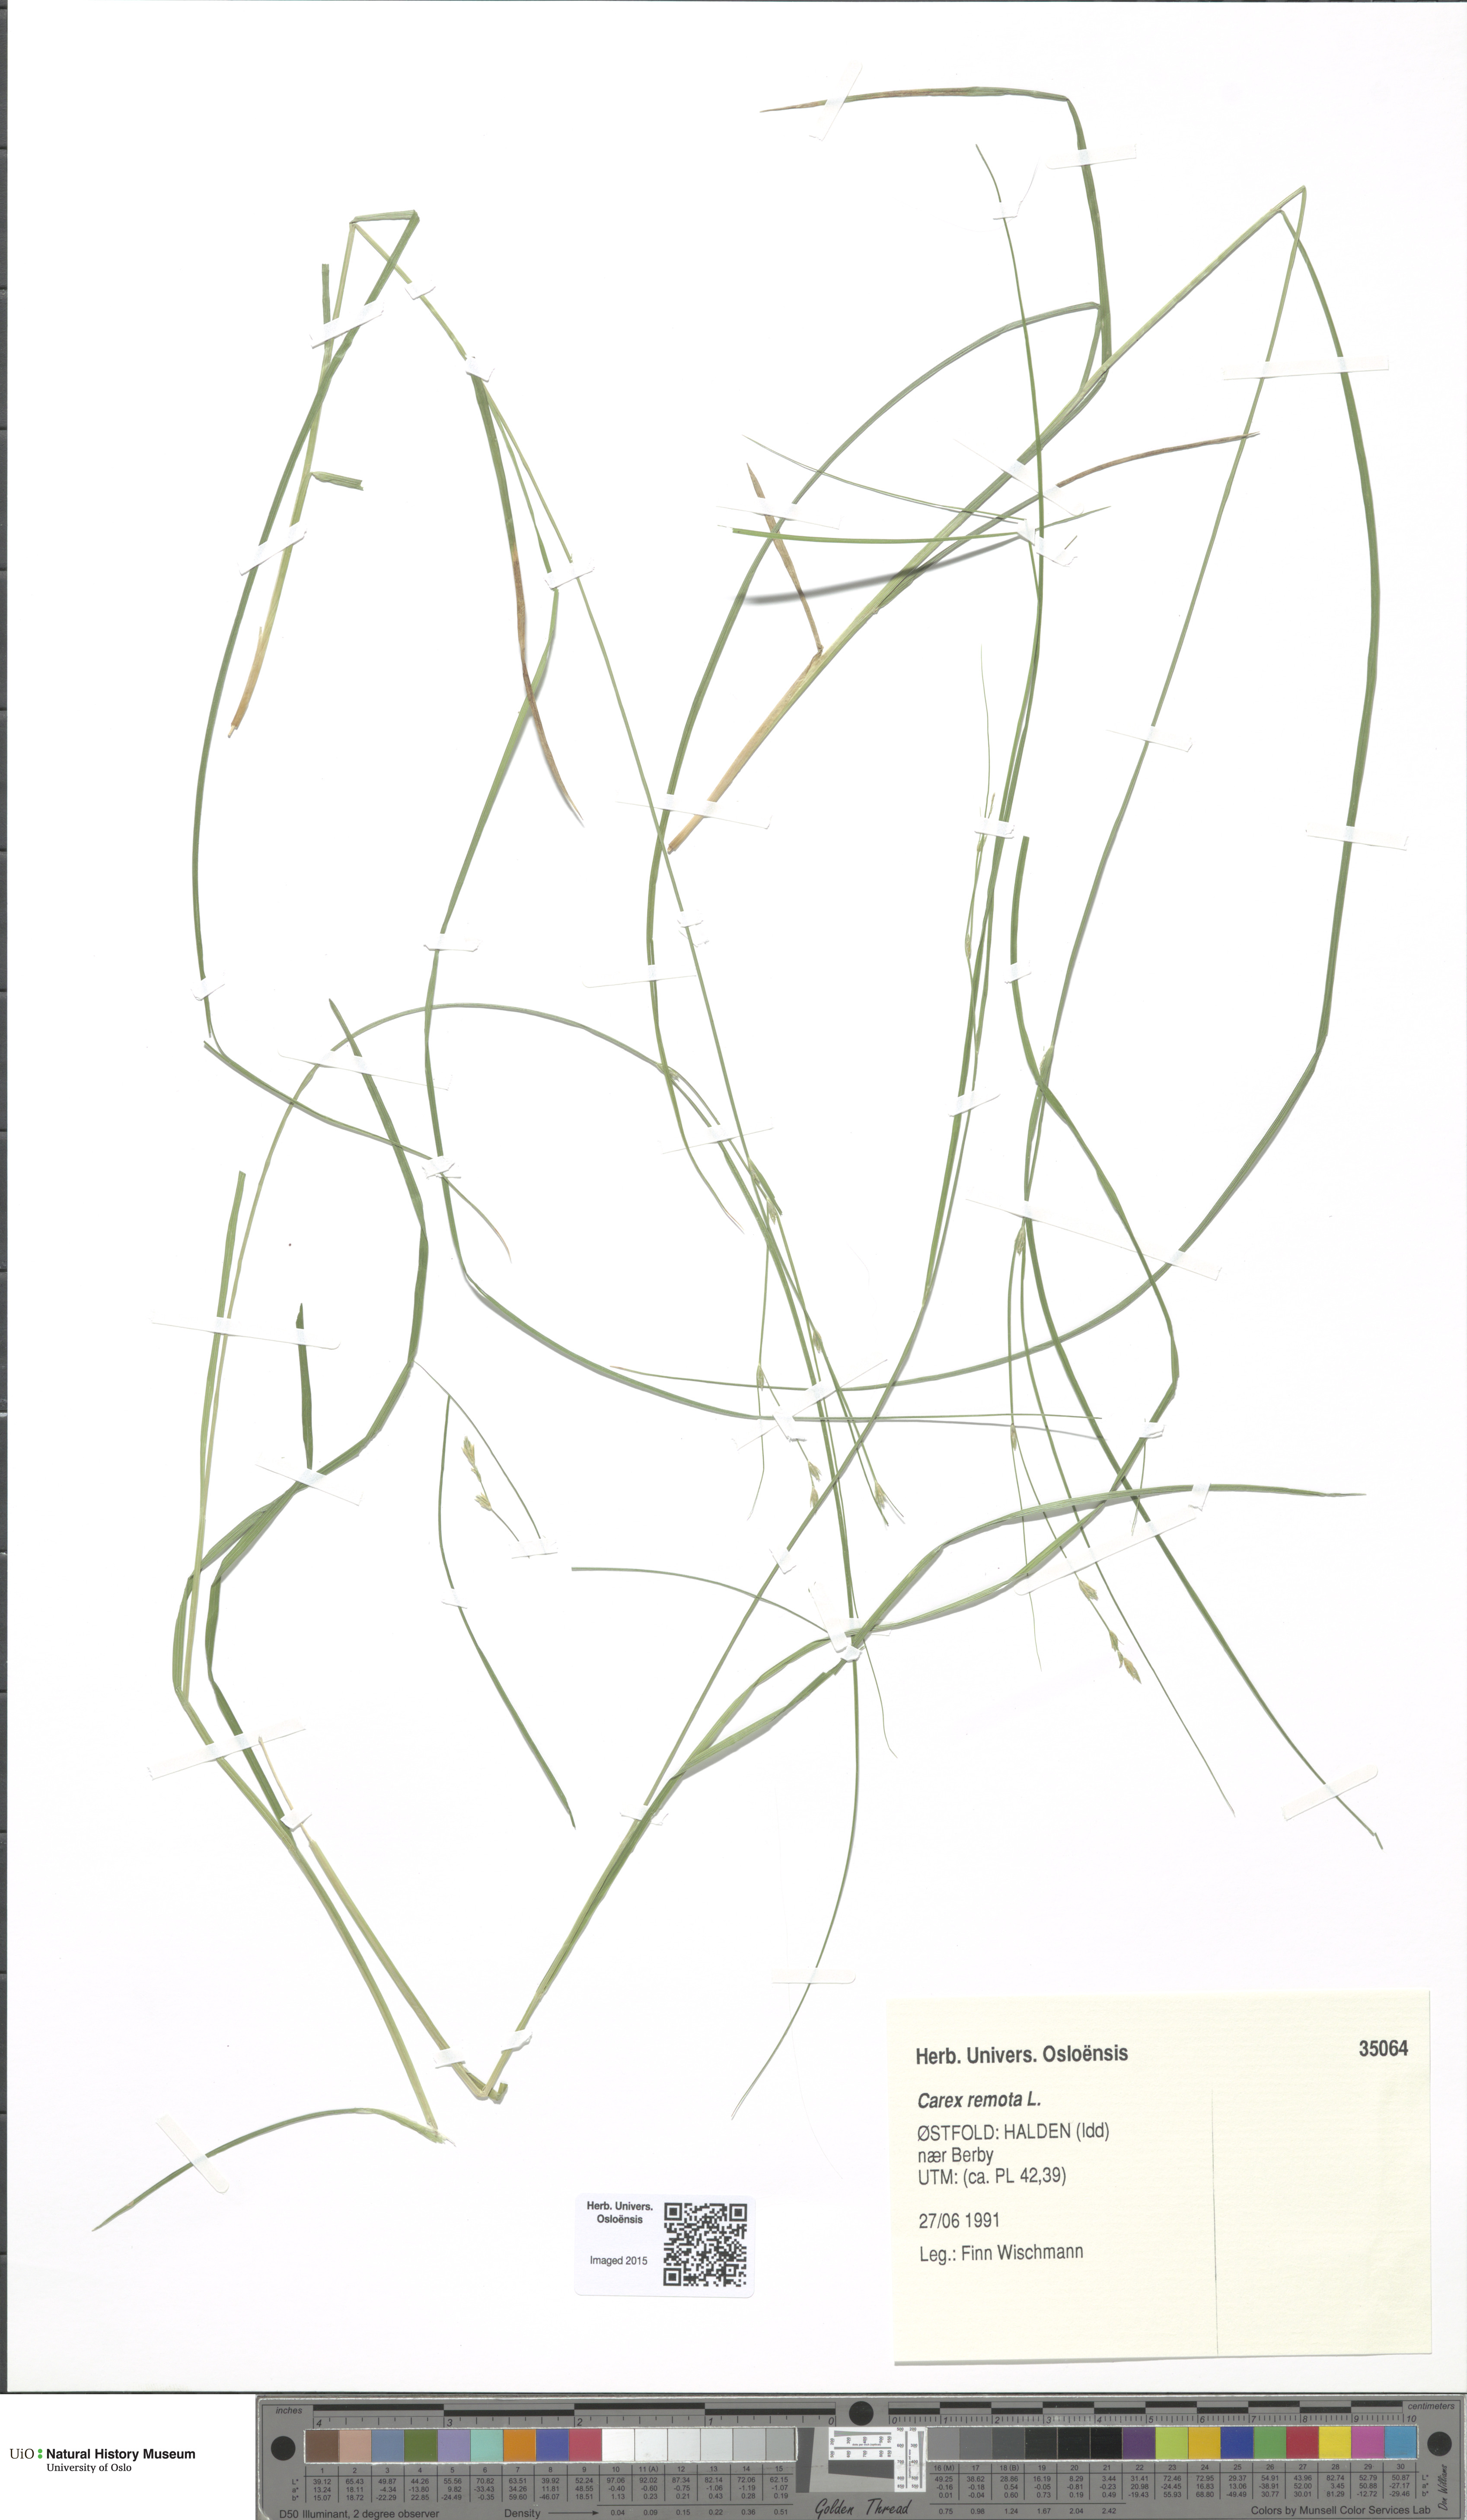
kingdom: Plantae
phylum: Tracheophyta
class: Liliopsida
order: Poales
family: Cyperaceae
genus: Carex
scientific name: Carex remota
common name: Remote sedge
